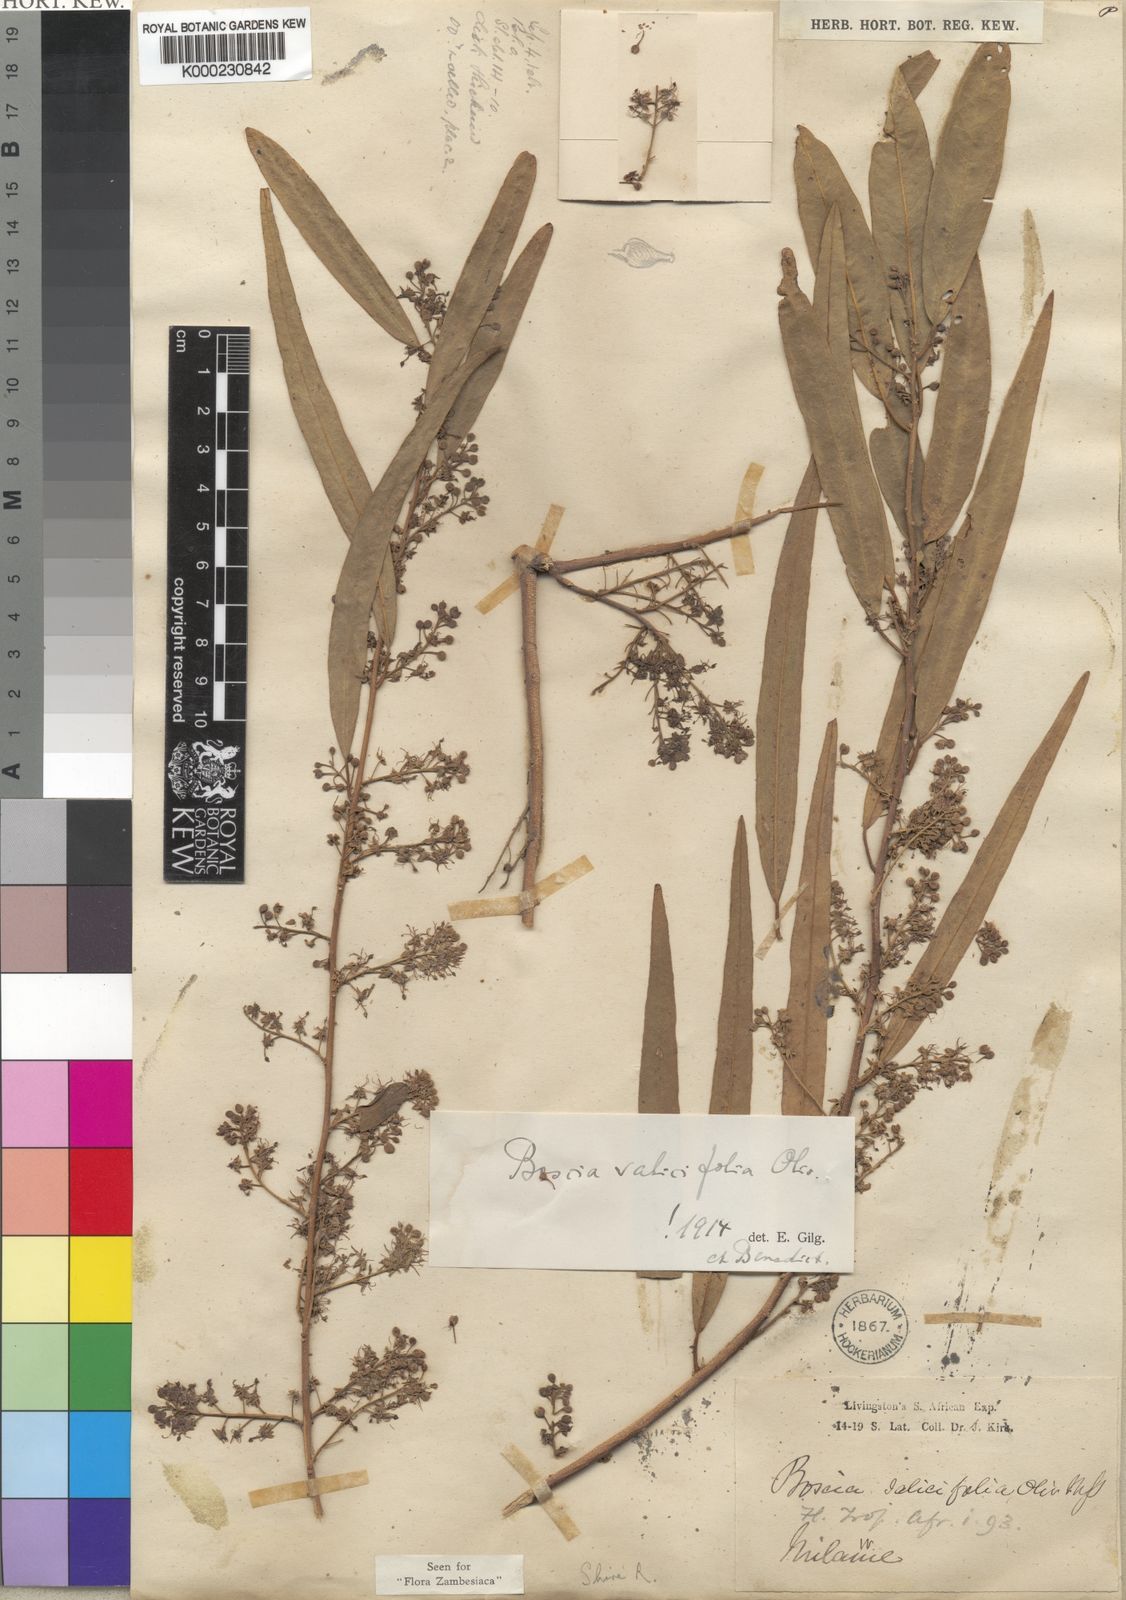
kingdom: Plantae
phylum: Tracheophyta
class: Magnoliopsida
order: Brassicales
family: Capparaceae
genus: Boscia
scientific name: Boscia salicifolia
